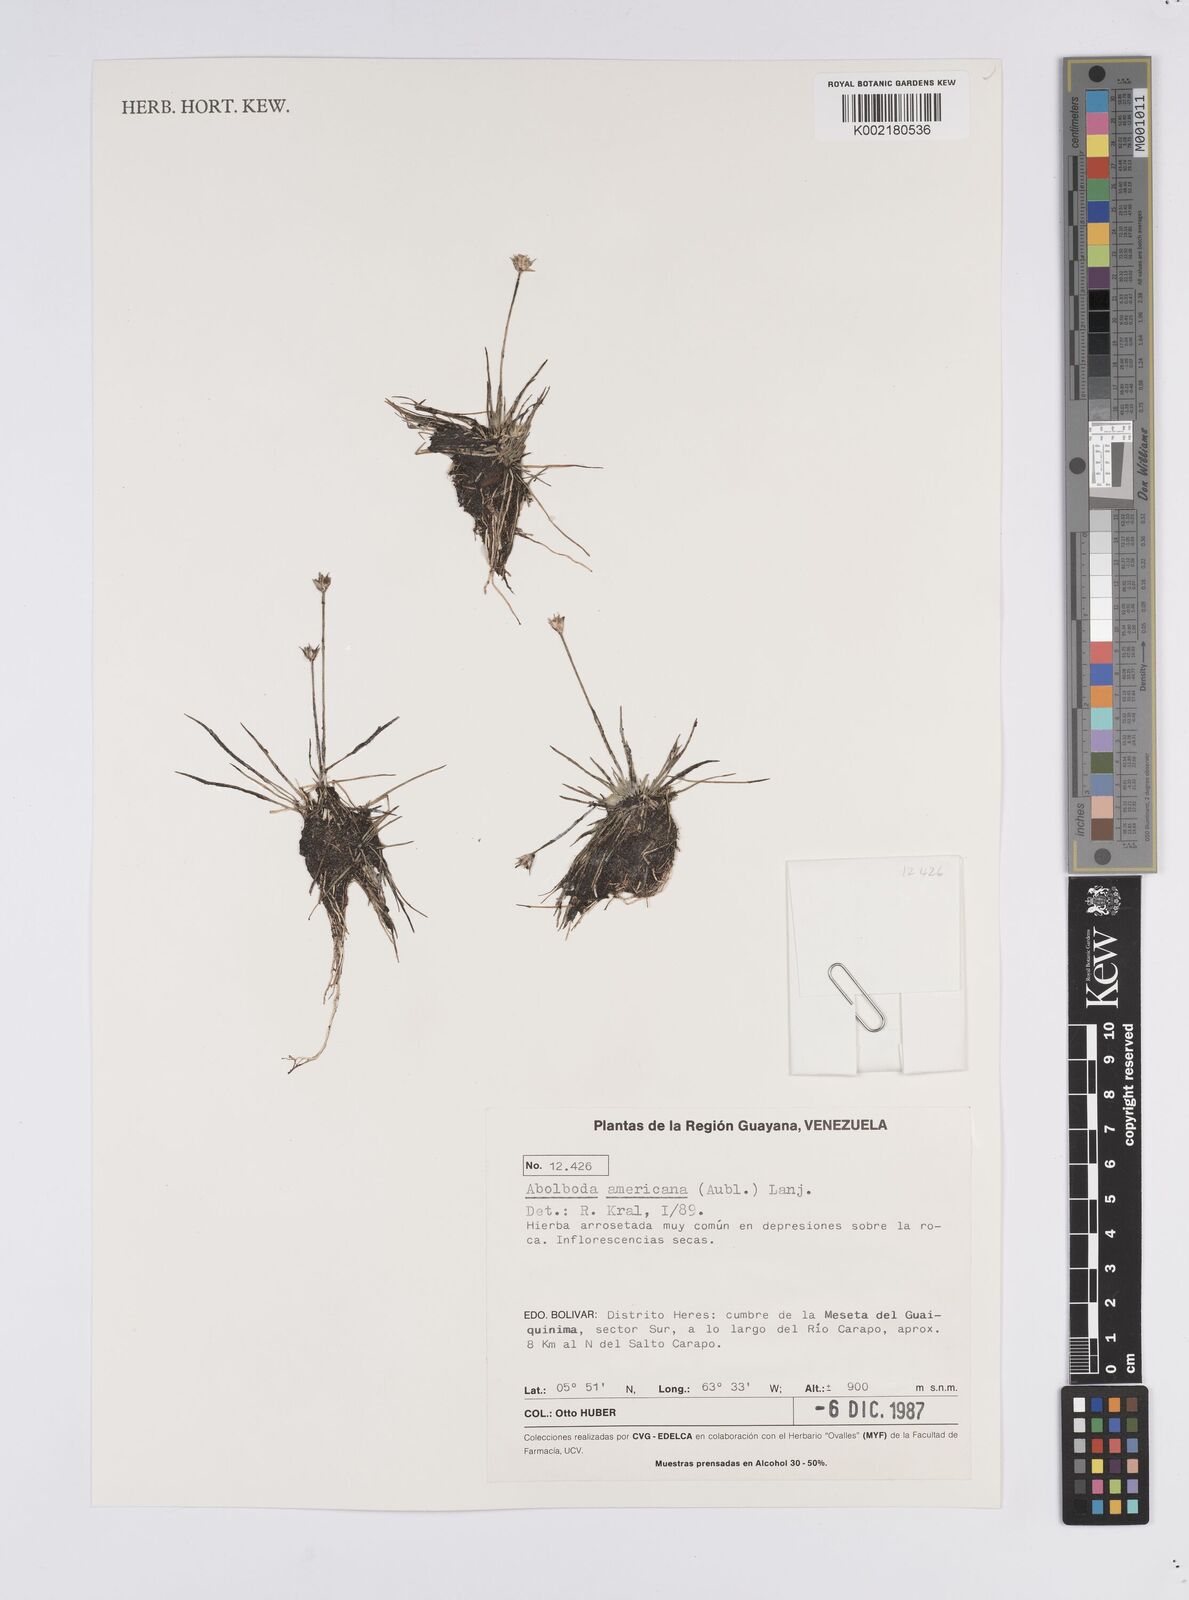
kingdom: Plantae
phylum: Tracheophyta
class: Liliopsida
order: Poales
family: Xyridaceae
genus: Abolboda
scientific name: Abolboda americana
